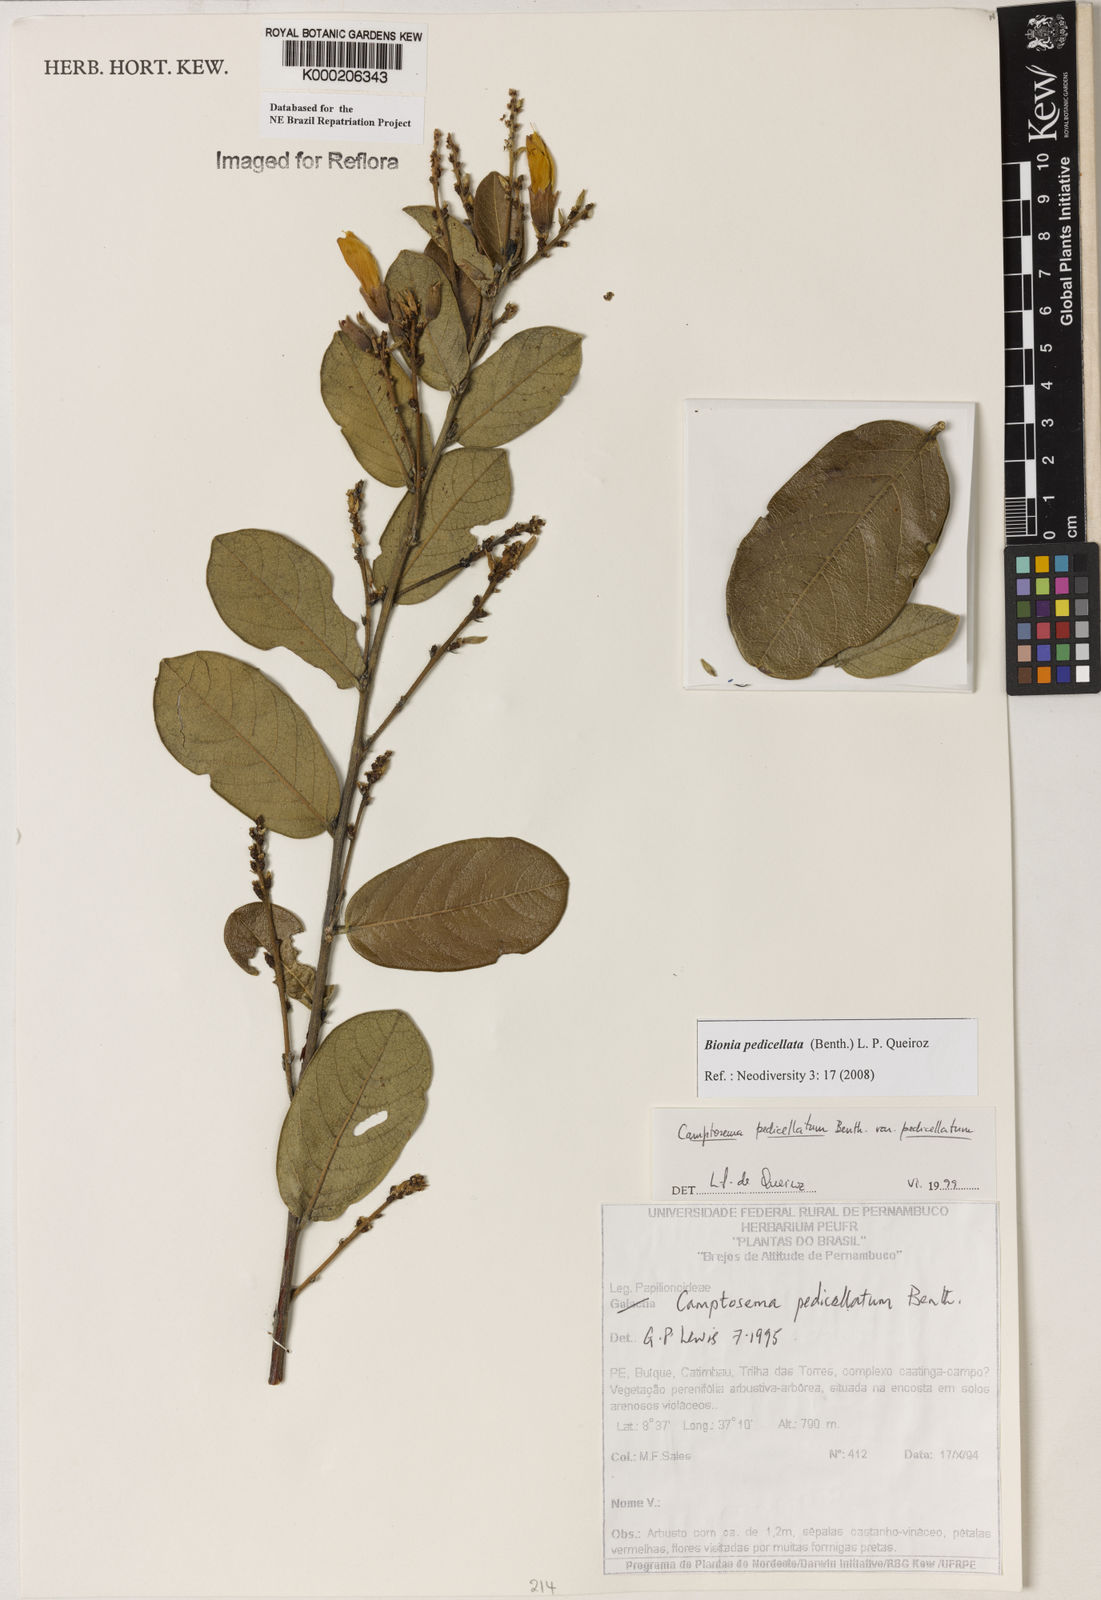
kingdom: Plantae
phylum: Tracheophyta
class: Magnoliopsida
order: Fabales
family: Fabaceae
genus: Camptosema
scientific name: Camptosema pedicellatum
